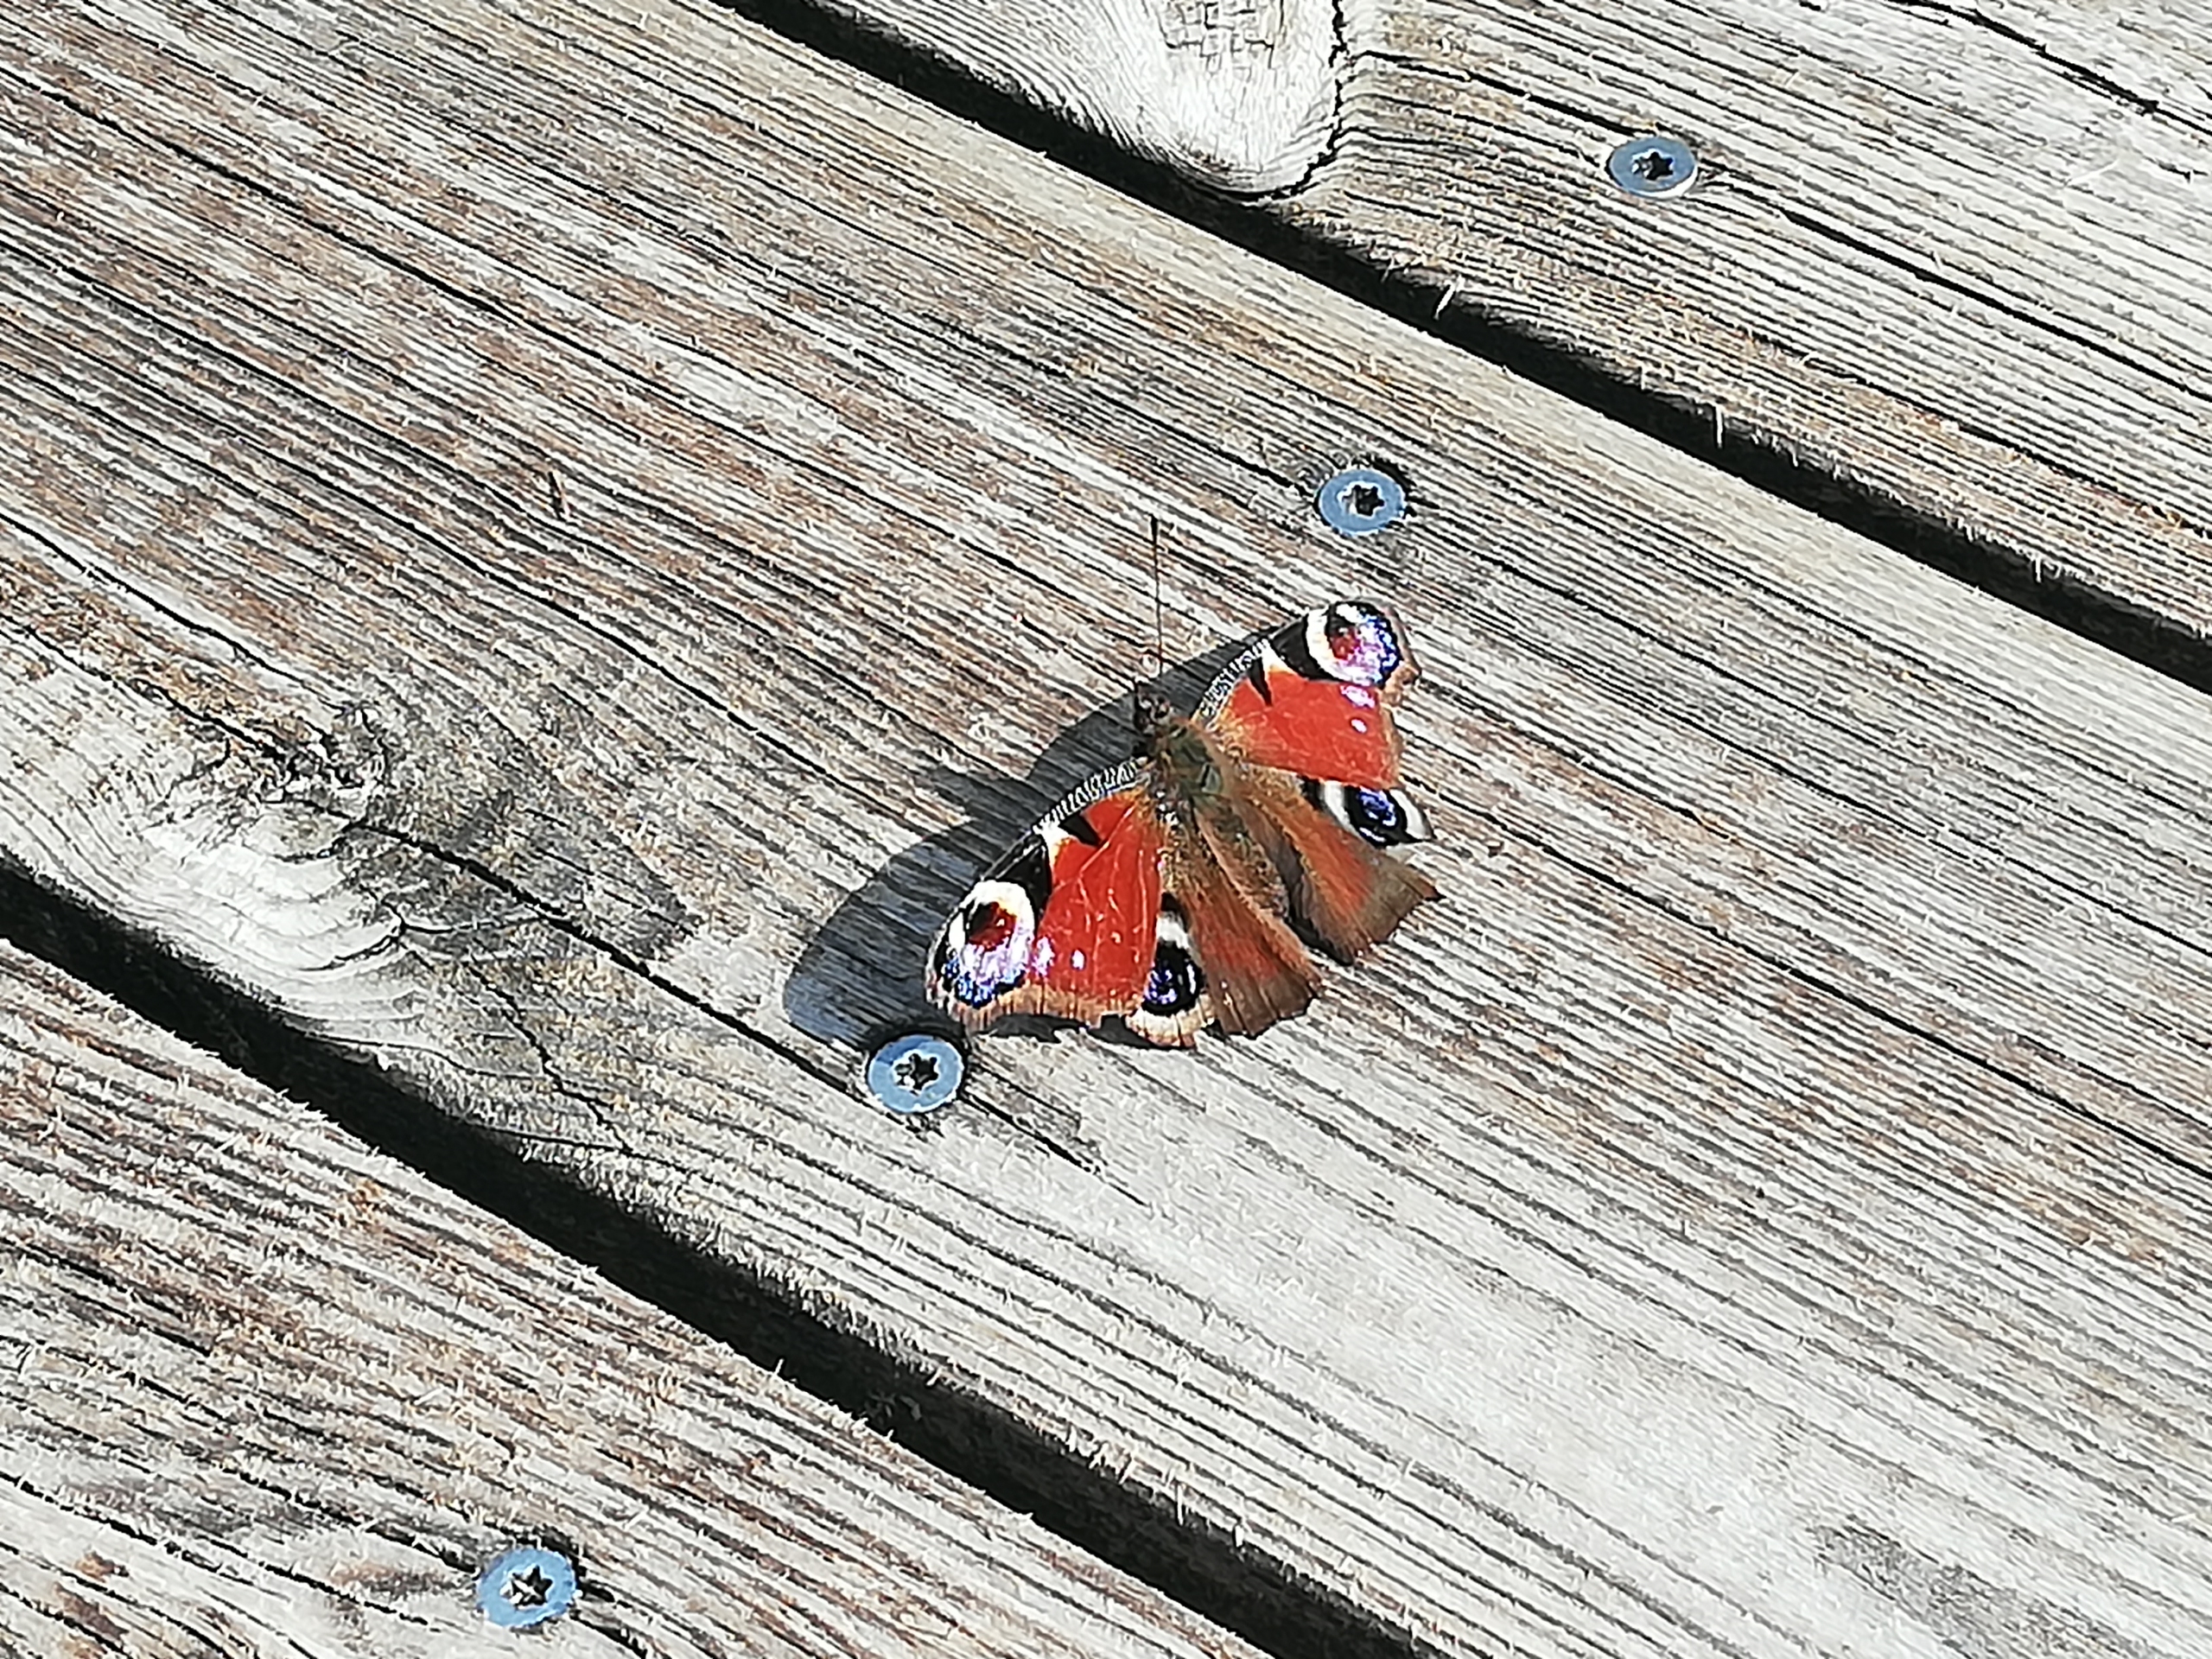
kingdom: Animalia
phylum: Arthropoda
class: Insecta
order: Lepidoptera
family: Nymphalidae
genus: Aglais
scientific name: Aglais io
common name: Dagpåfugleøje
